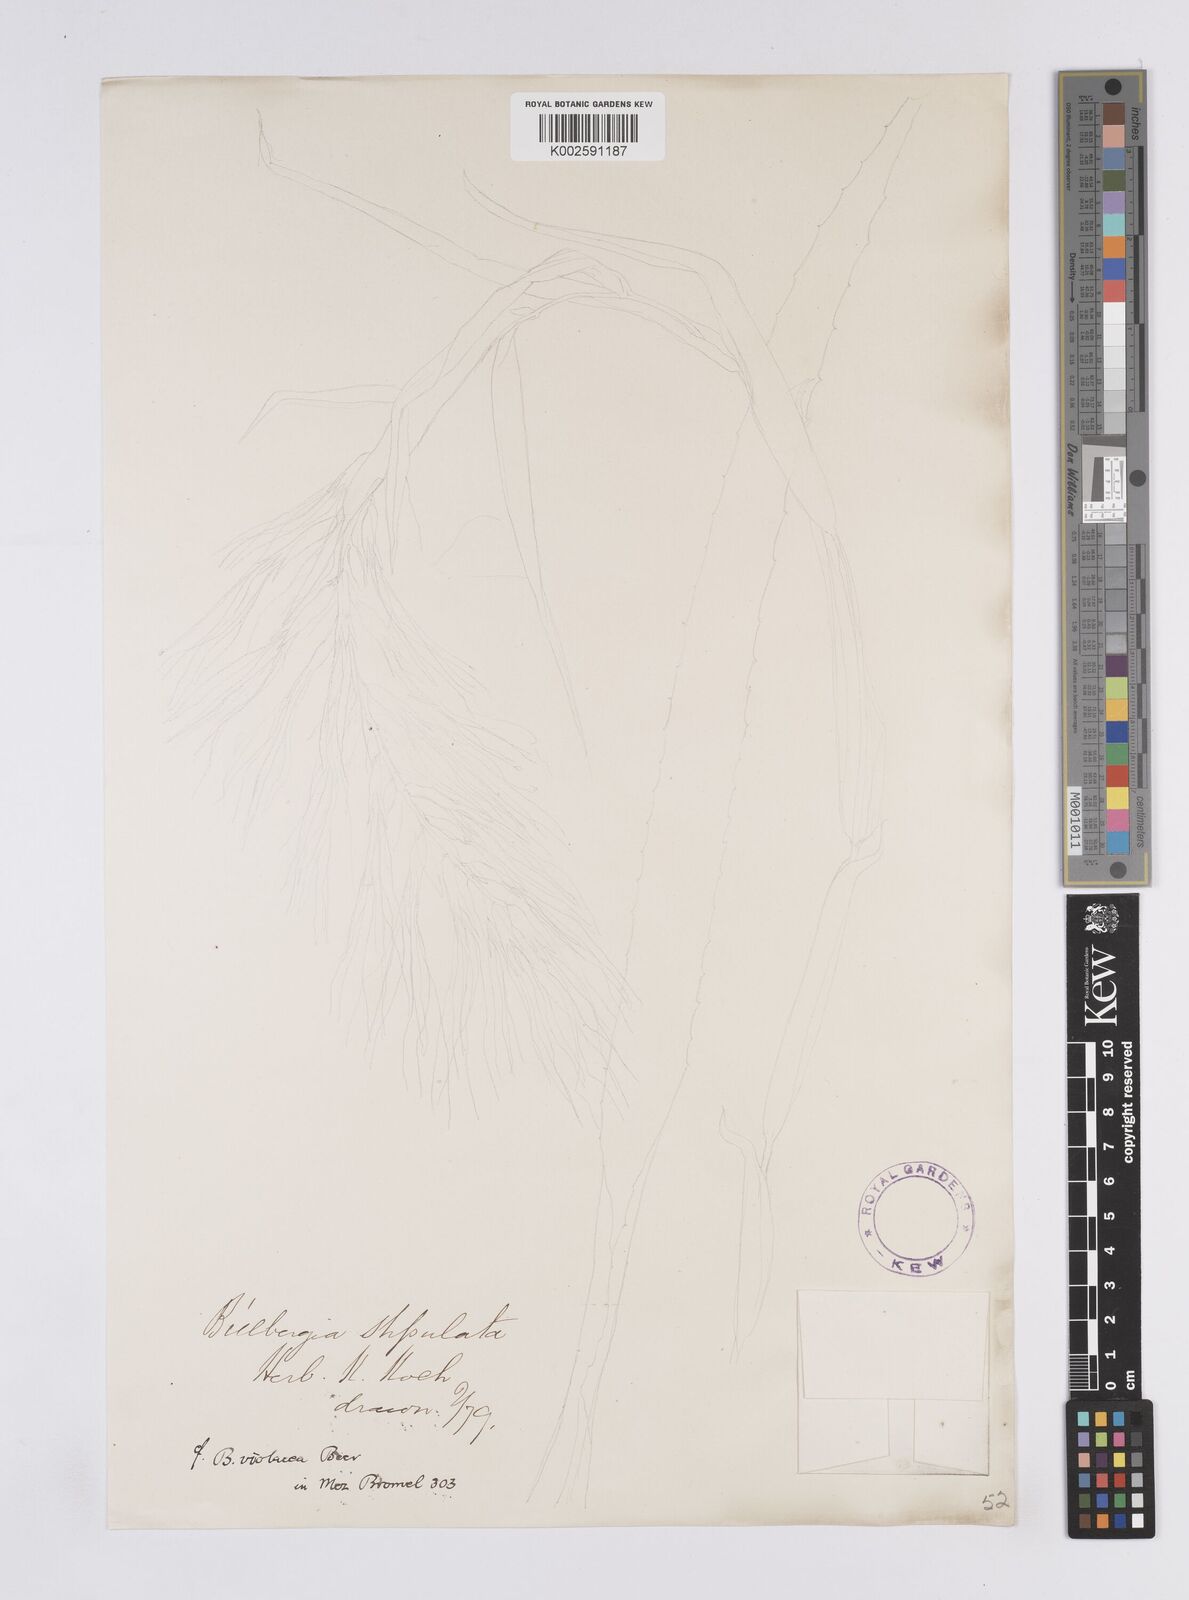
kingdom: Plantae
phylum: Tracheophyta
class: Liliopsida
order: Poales
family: Bromeliaceae
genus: Billbergia
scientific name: Billbergia violacea
